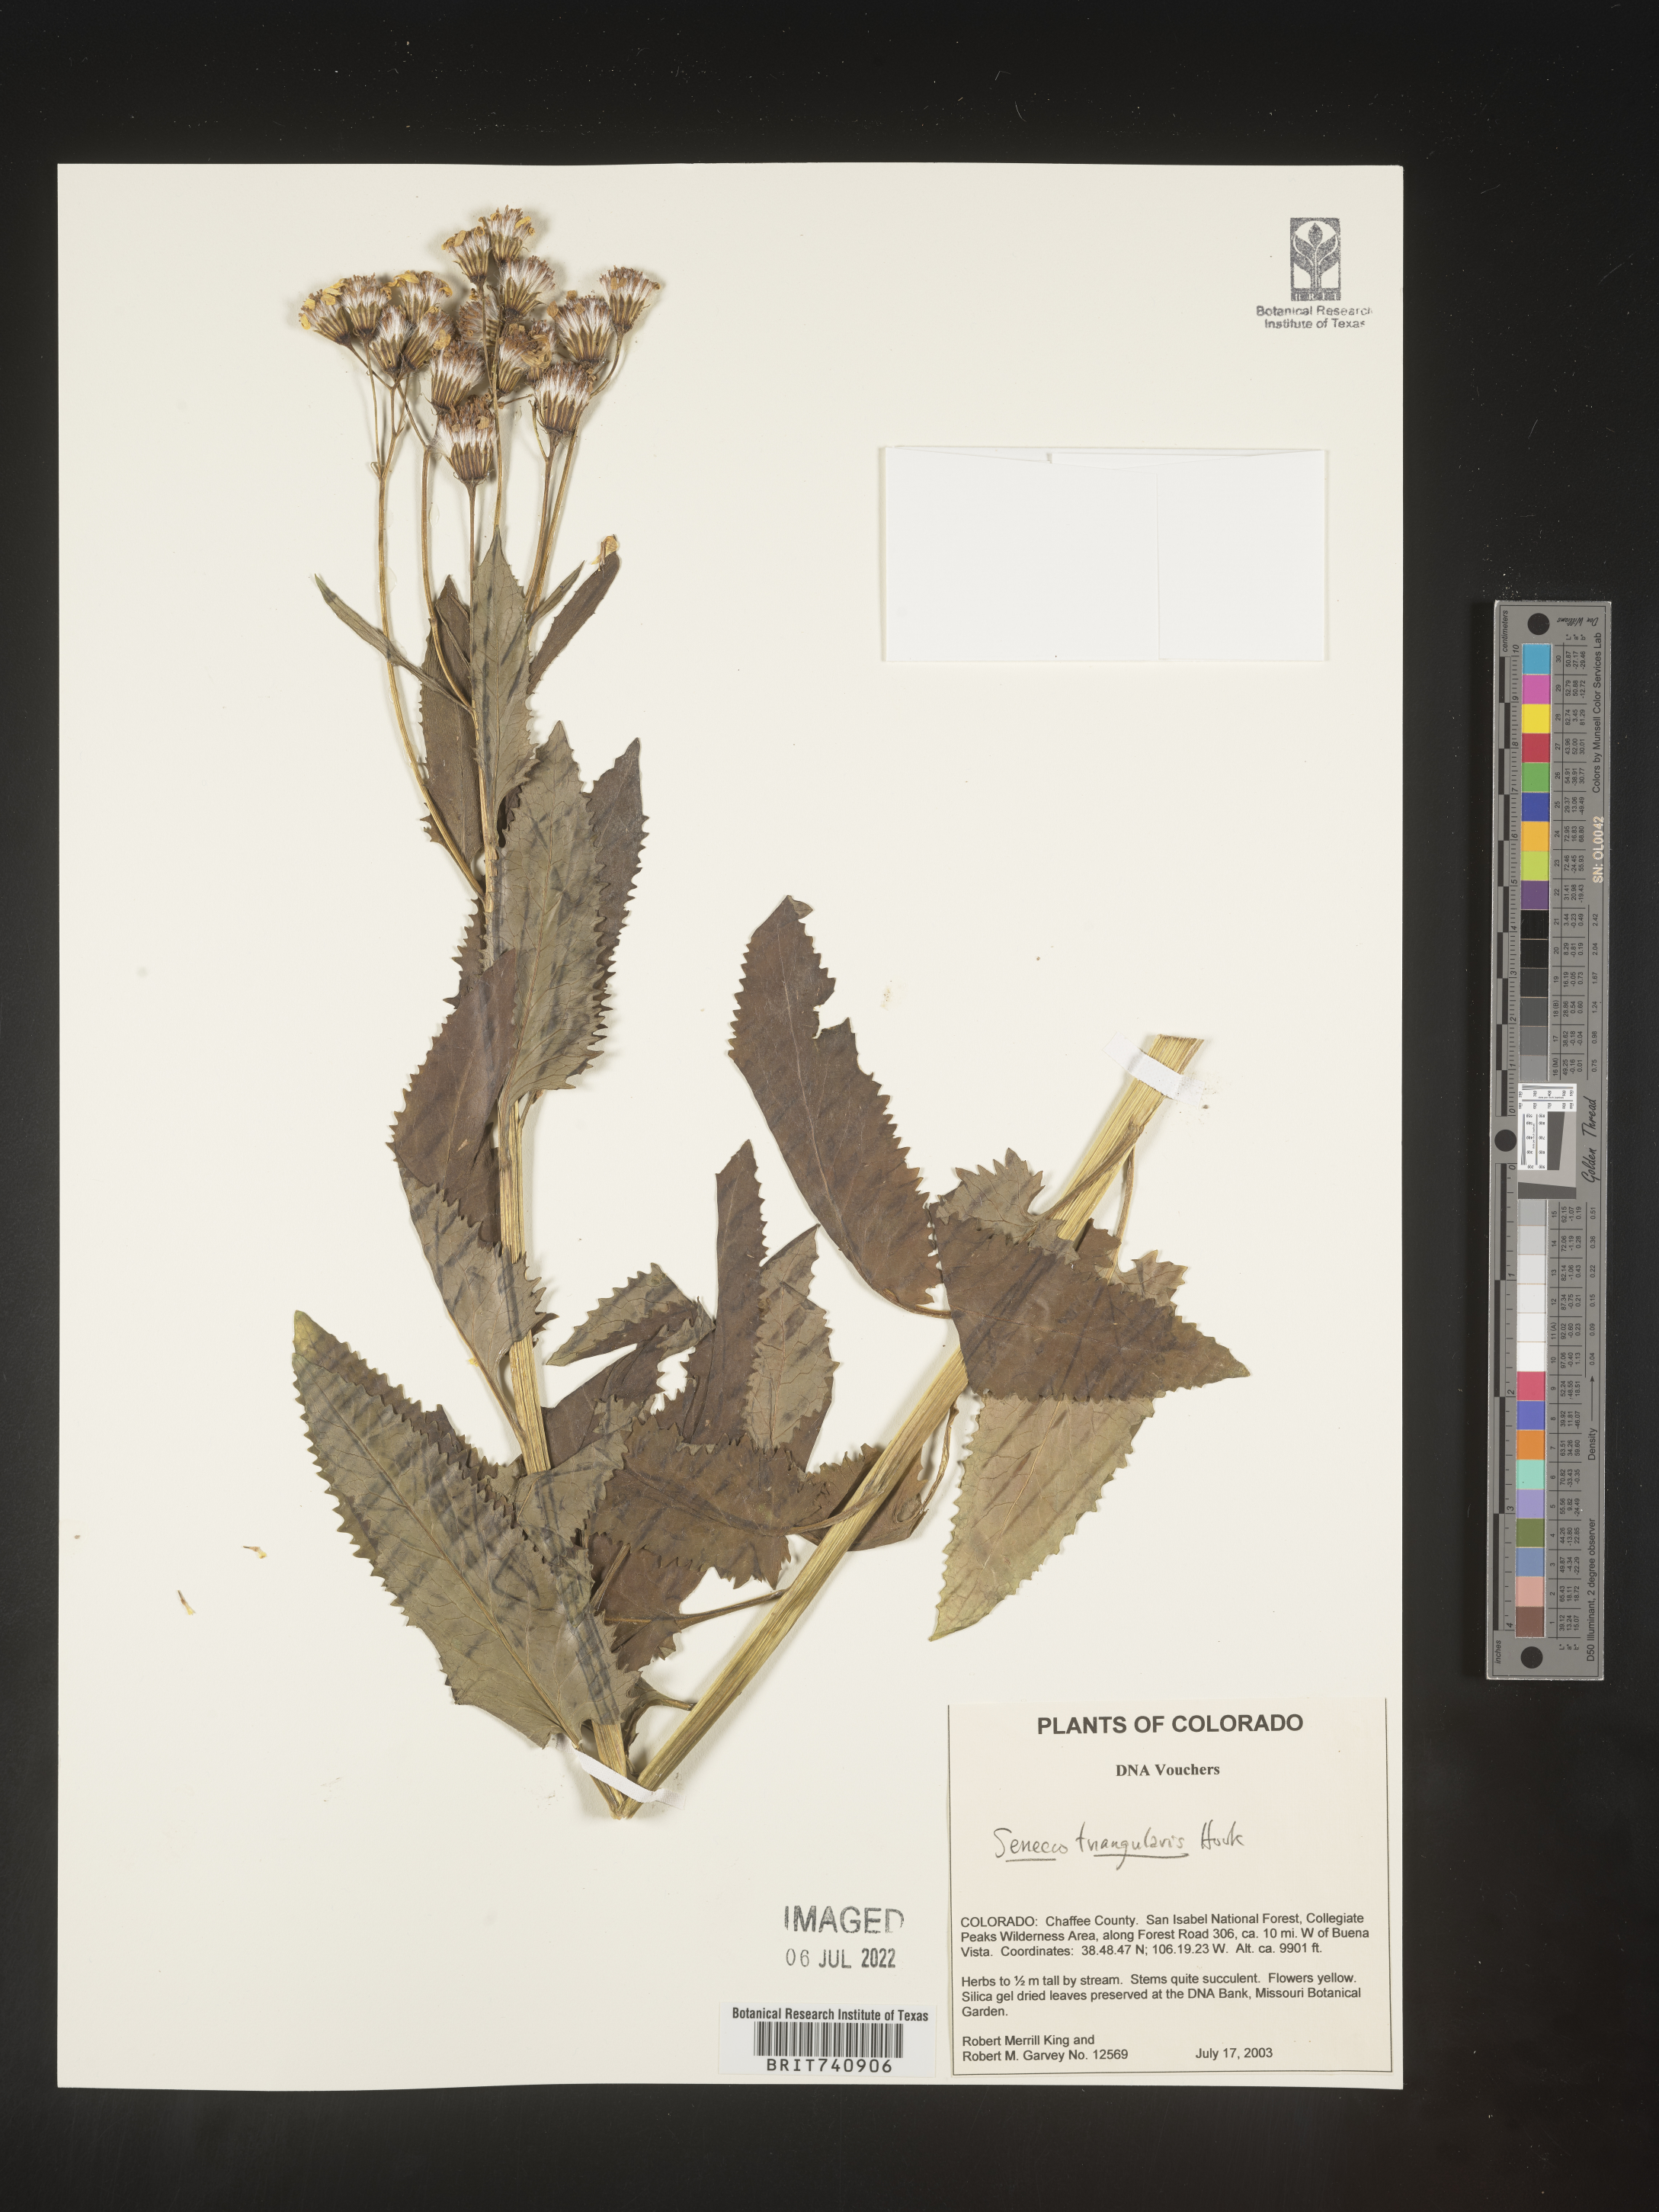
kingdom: Plantae
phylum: Tracheophyta
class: Magnoliopsida
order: Asterales
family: Asteraceae
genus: Senecio
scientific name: Senecio triangularis
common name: Arrowleaf butterweed
